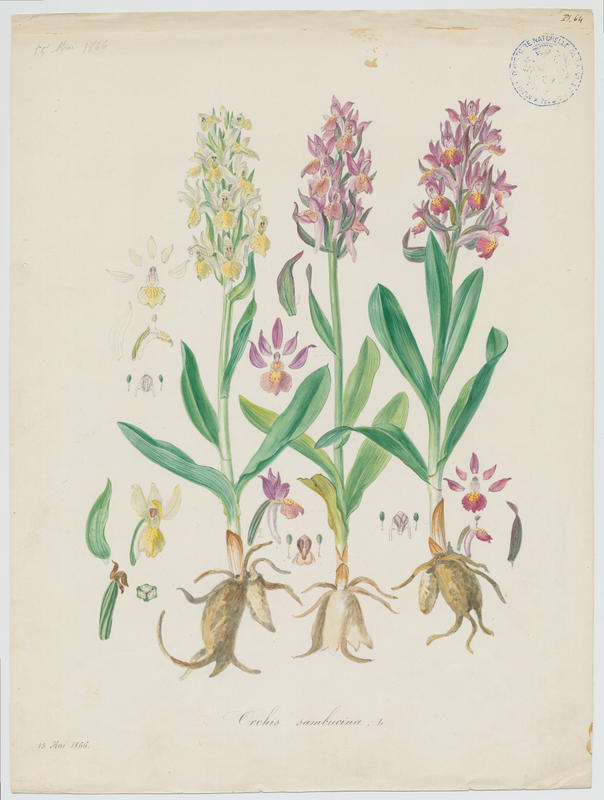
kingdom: Plantae
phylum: Tracheophyta
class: Liliopsida
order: Asparagales
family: Orchidaceae
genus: Dactylorhiza
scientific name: Dactylorhiza sambucina
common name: Elder-flowered orchid
